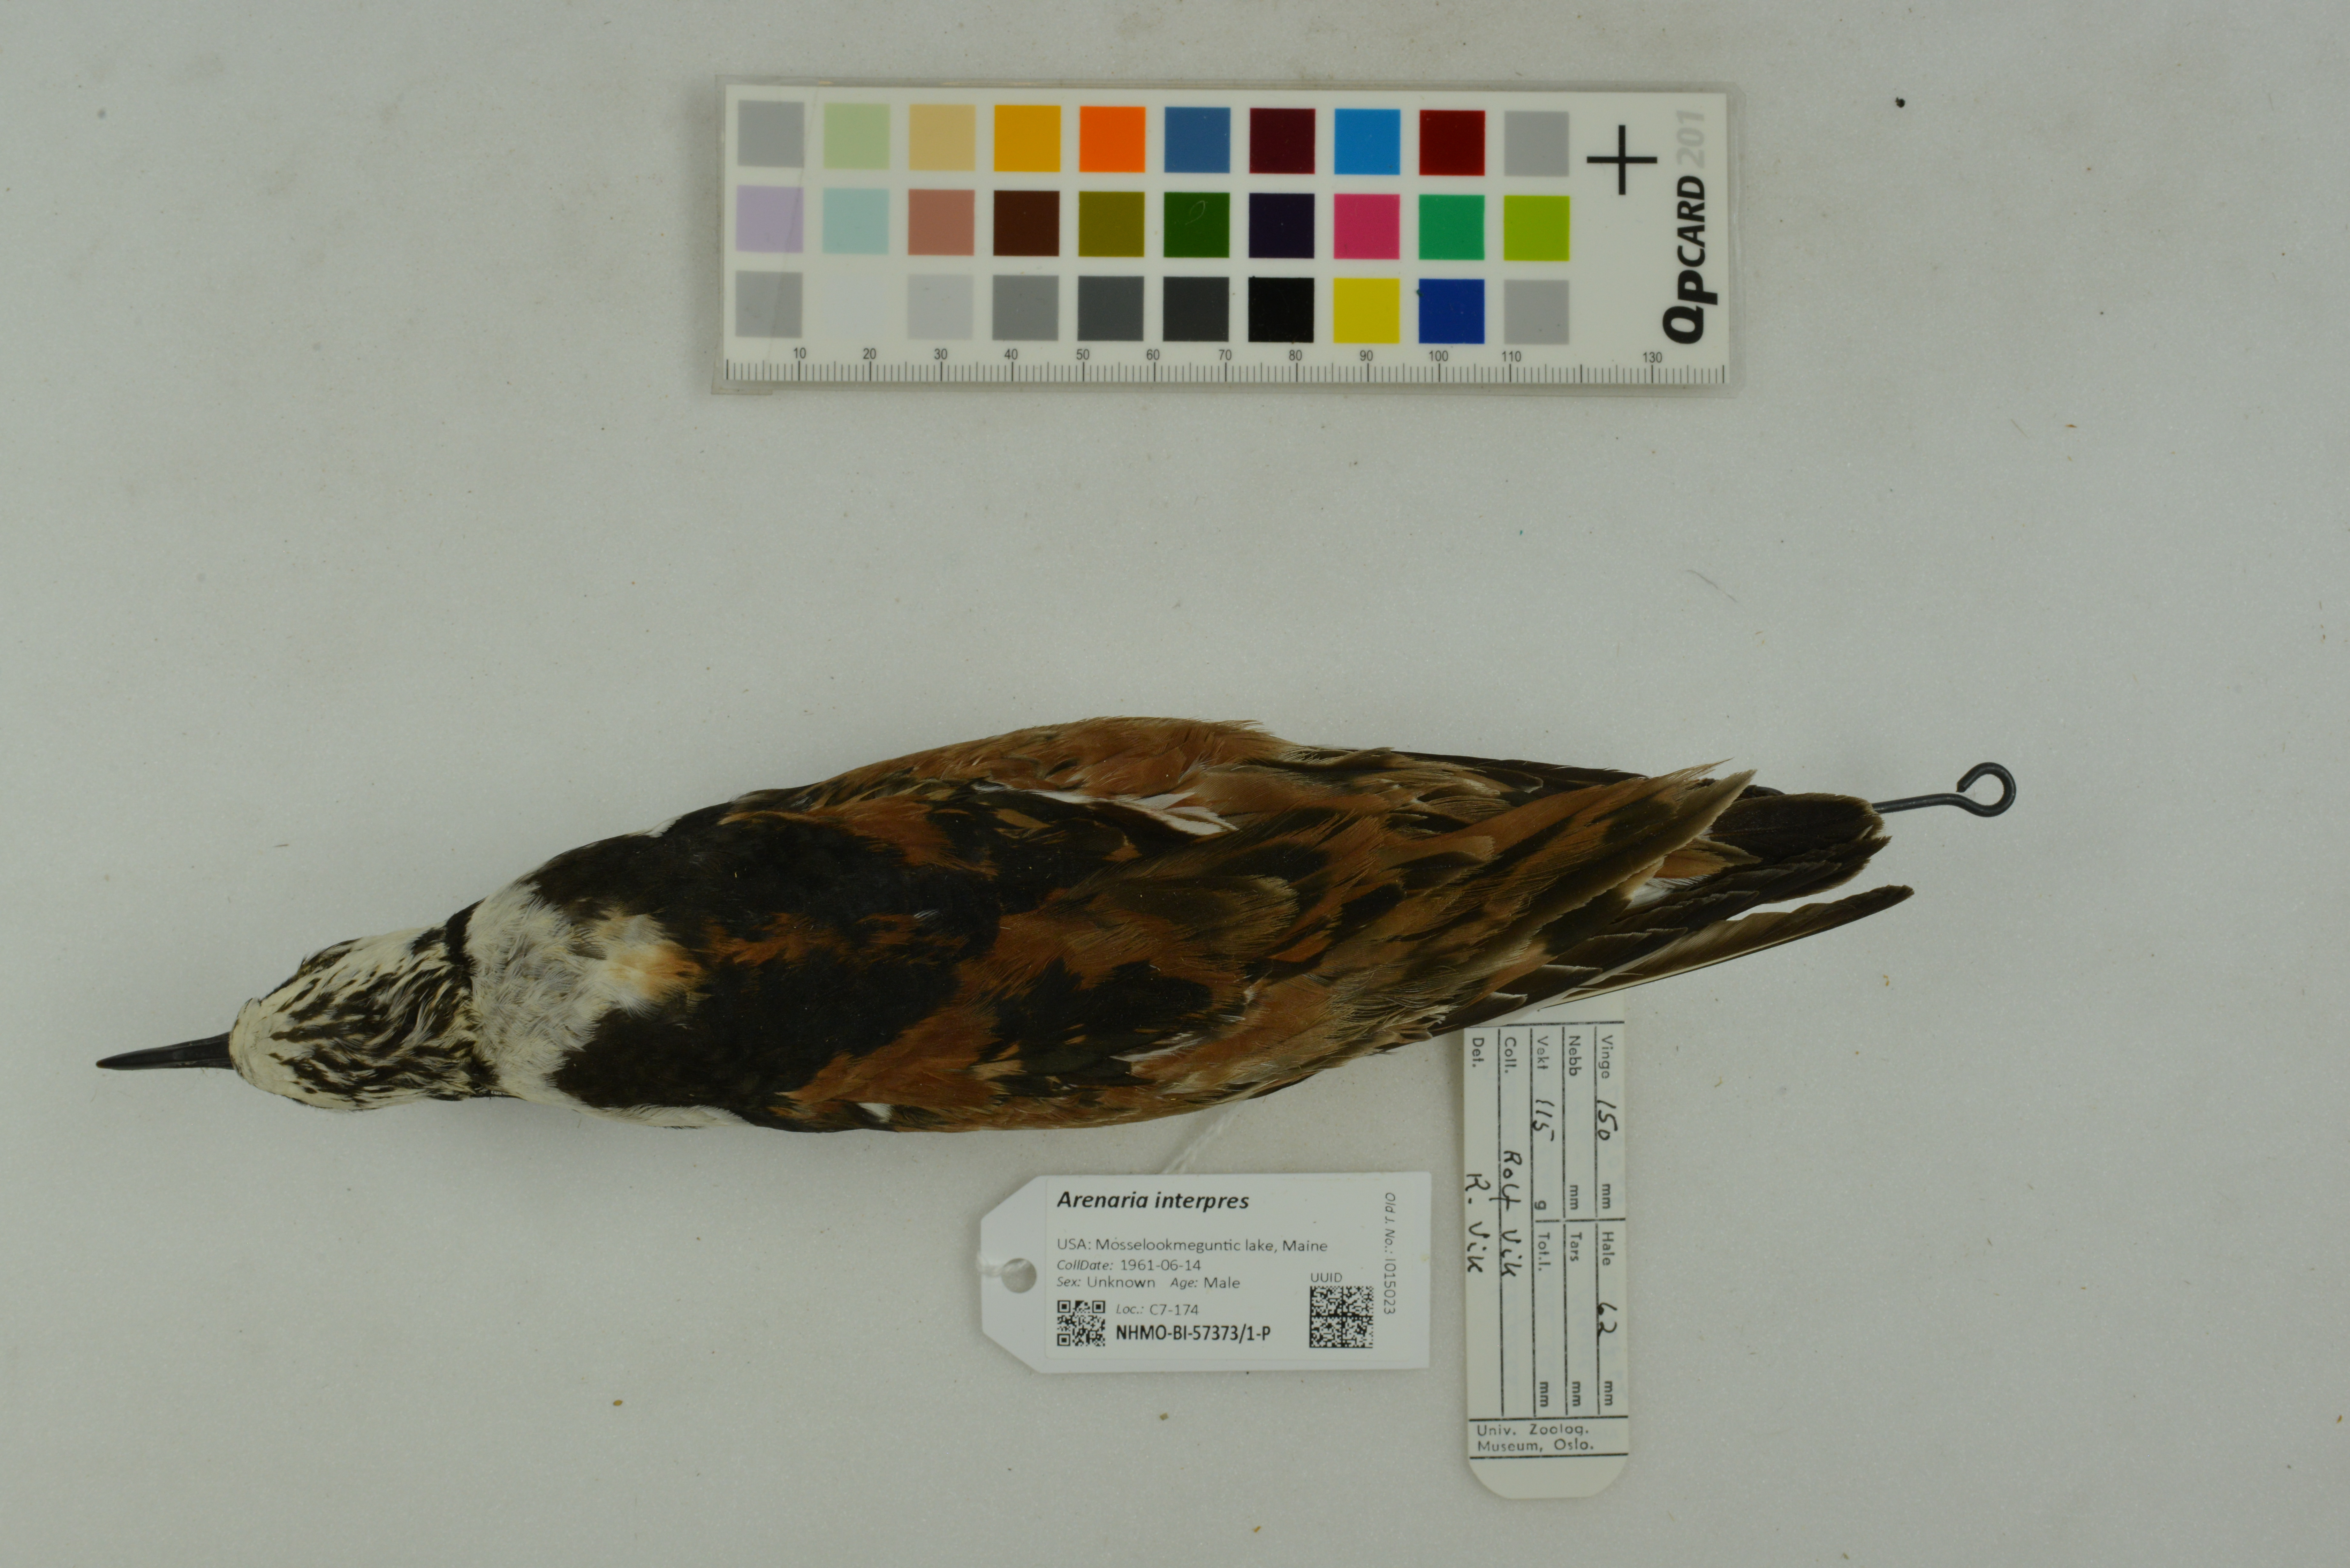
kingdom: Animalia
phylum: Chordata
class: Aves
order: Charadriiformes
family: Scolopacidae
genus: Arenaria
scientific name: Arenaria interpres
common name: Ruddy turnstone
